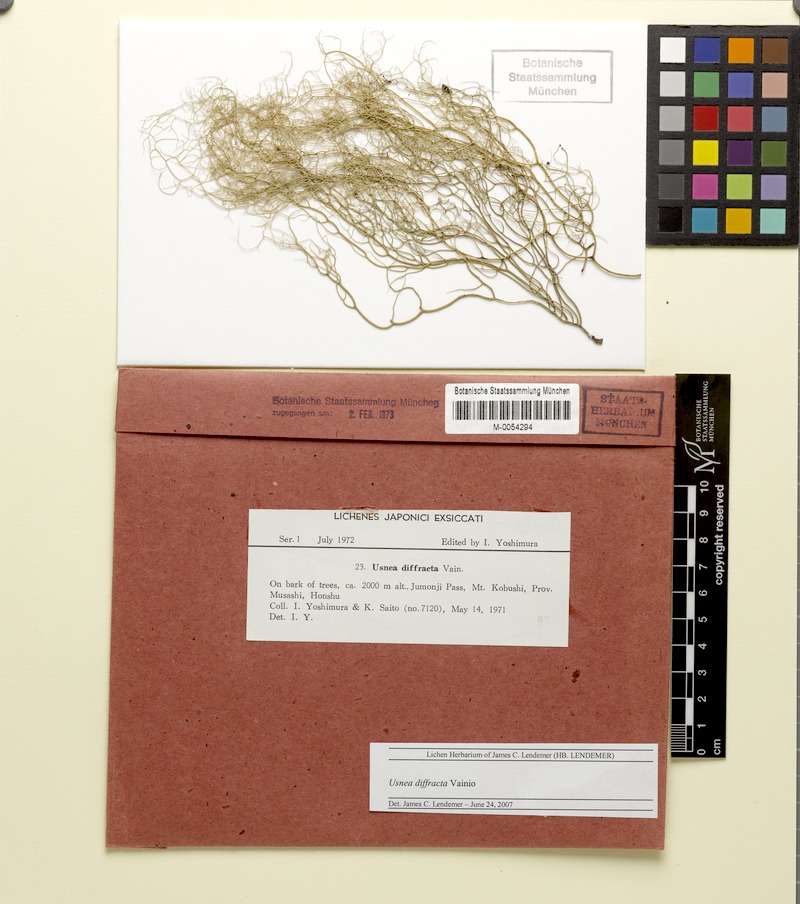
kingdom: Fungi
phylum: Ascomycota
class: Lecanoromycetes
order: Lecanorales
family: Parmeliaceae
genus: Dolichousnea
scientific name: Dolichousnea diffracta
